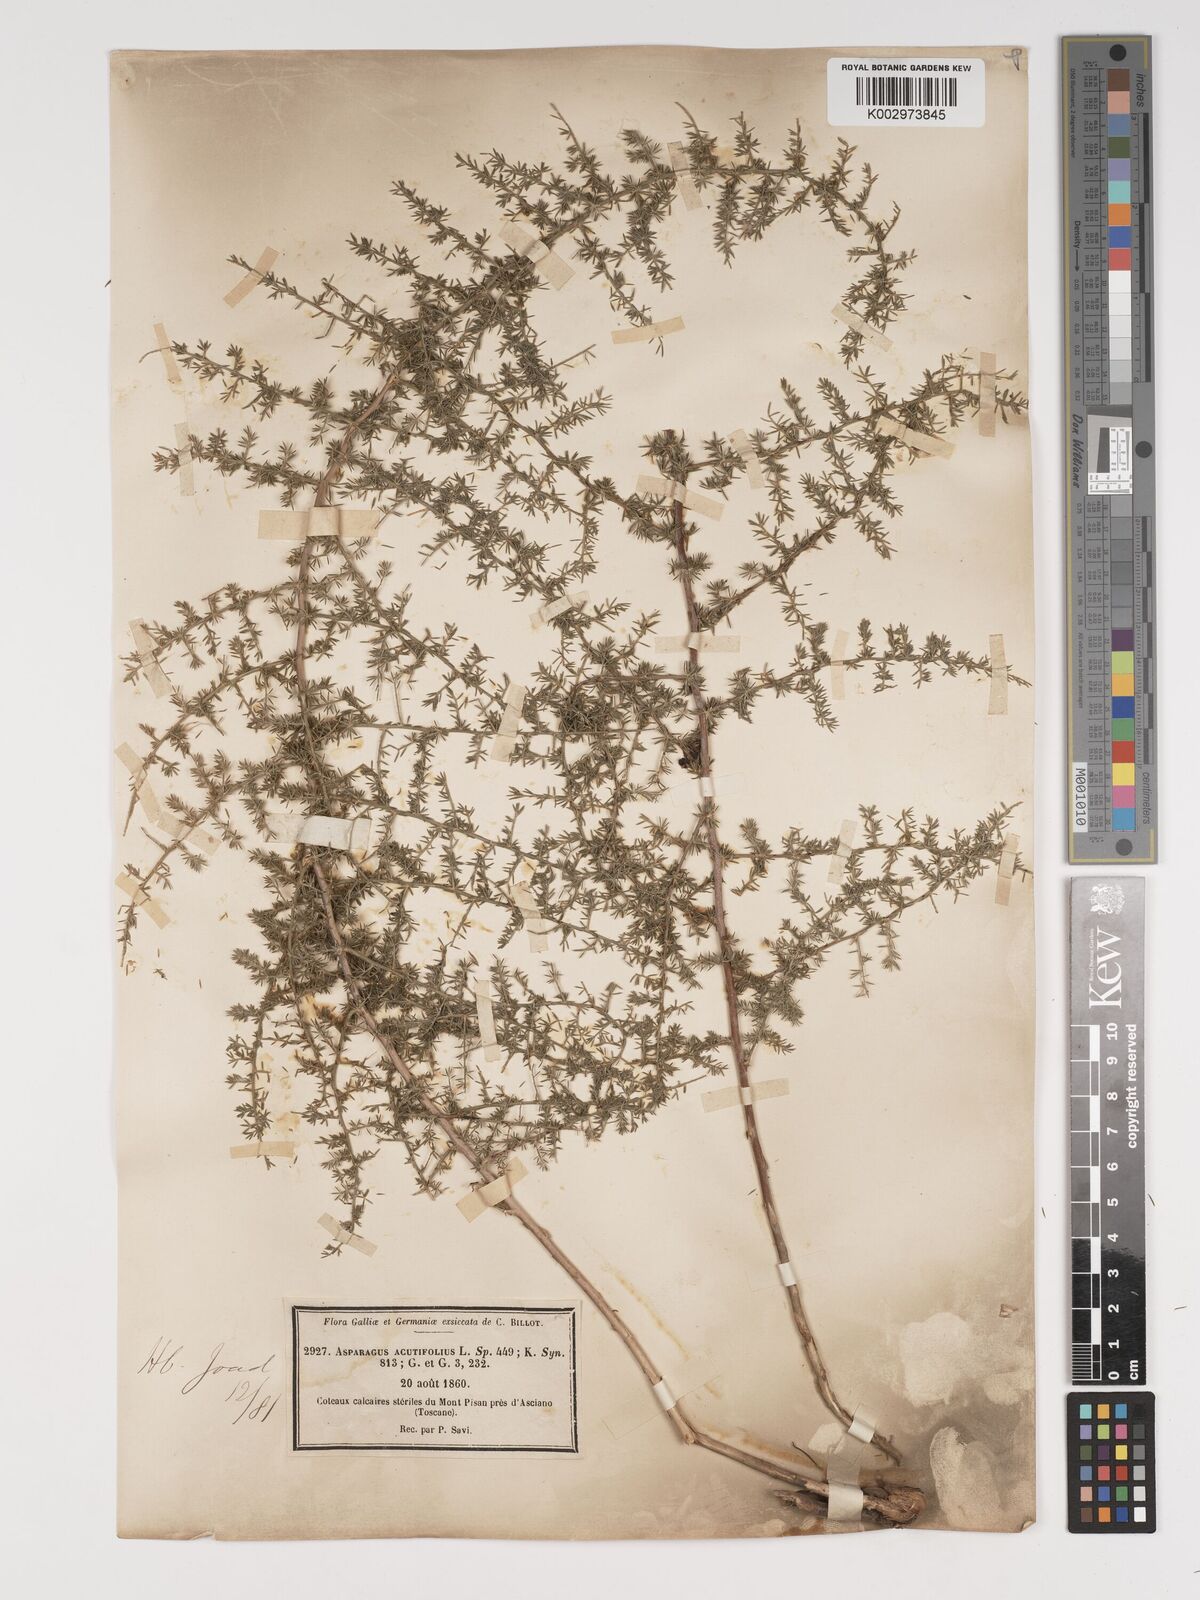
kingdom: Plantae
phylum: Tracheophyta
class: Liliopsida
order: Asparagales
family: Asparagaceae
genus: Asparagus
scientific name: Asparagus acutifolius
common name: Wild asparagus
